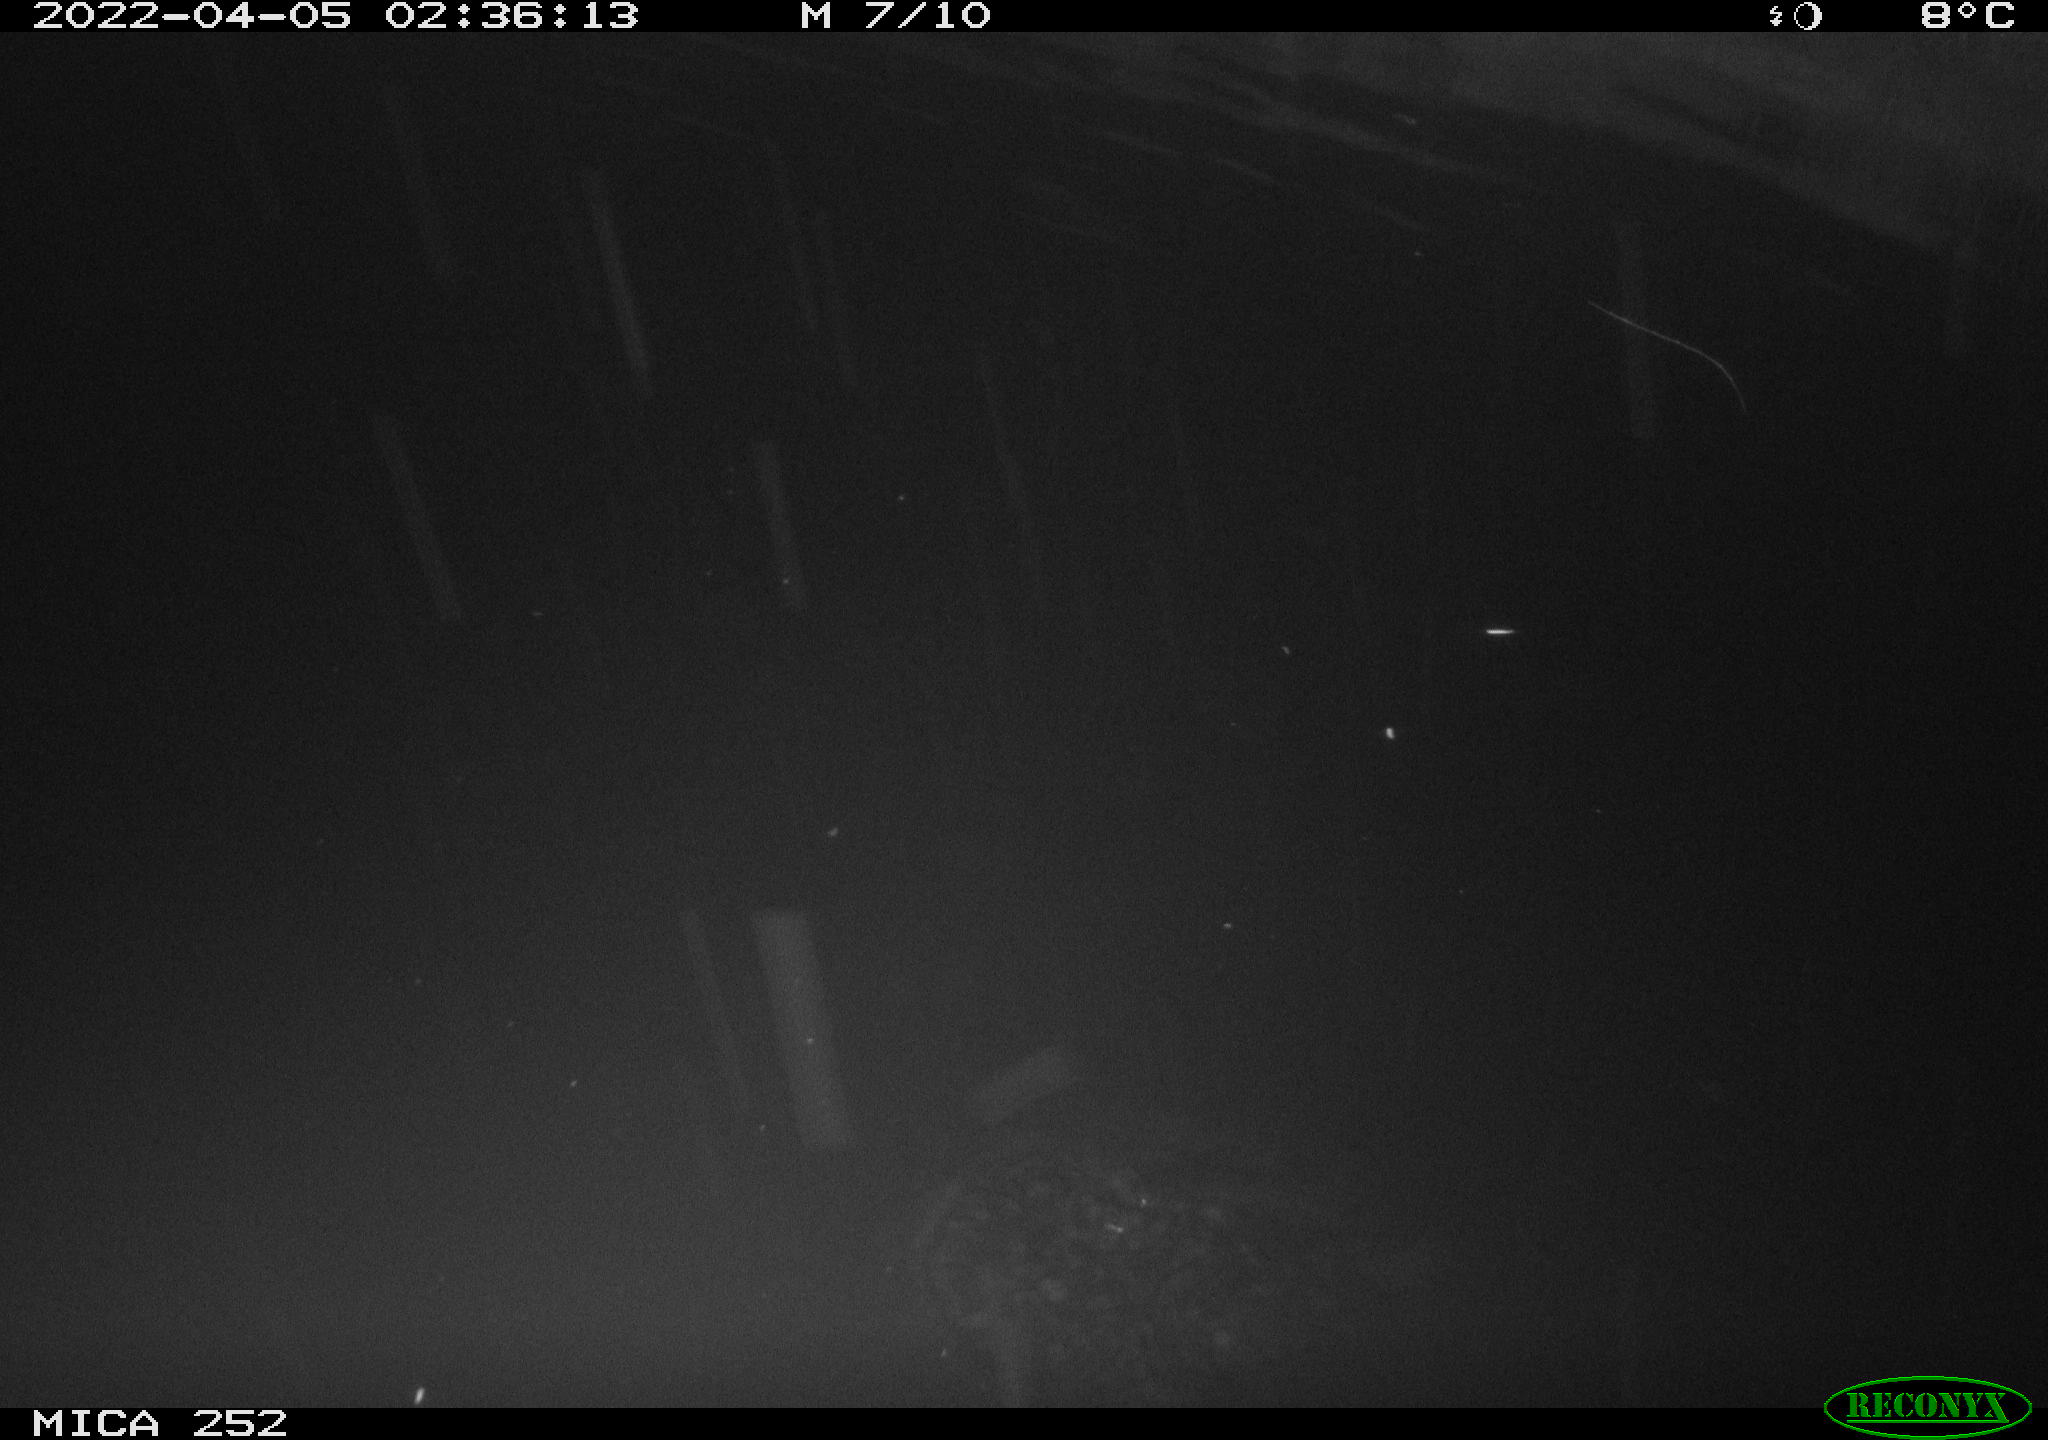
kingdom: Animalia
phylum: Chordata
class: Mammalia
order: Rodentia
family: Castoridae
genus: Castor
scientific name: Castor fiber
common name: Eurasian beaver
